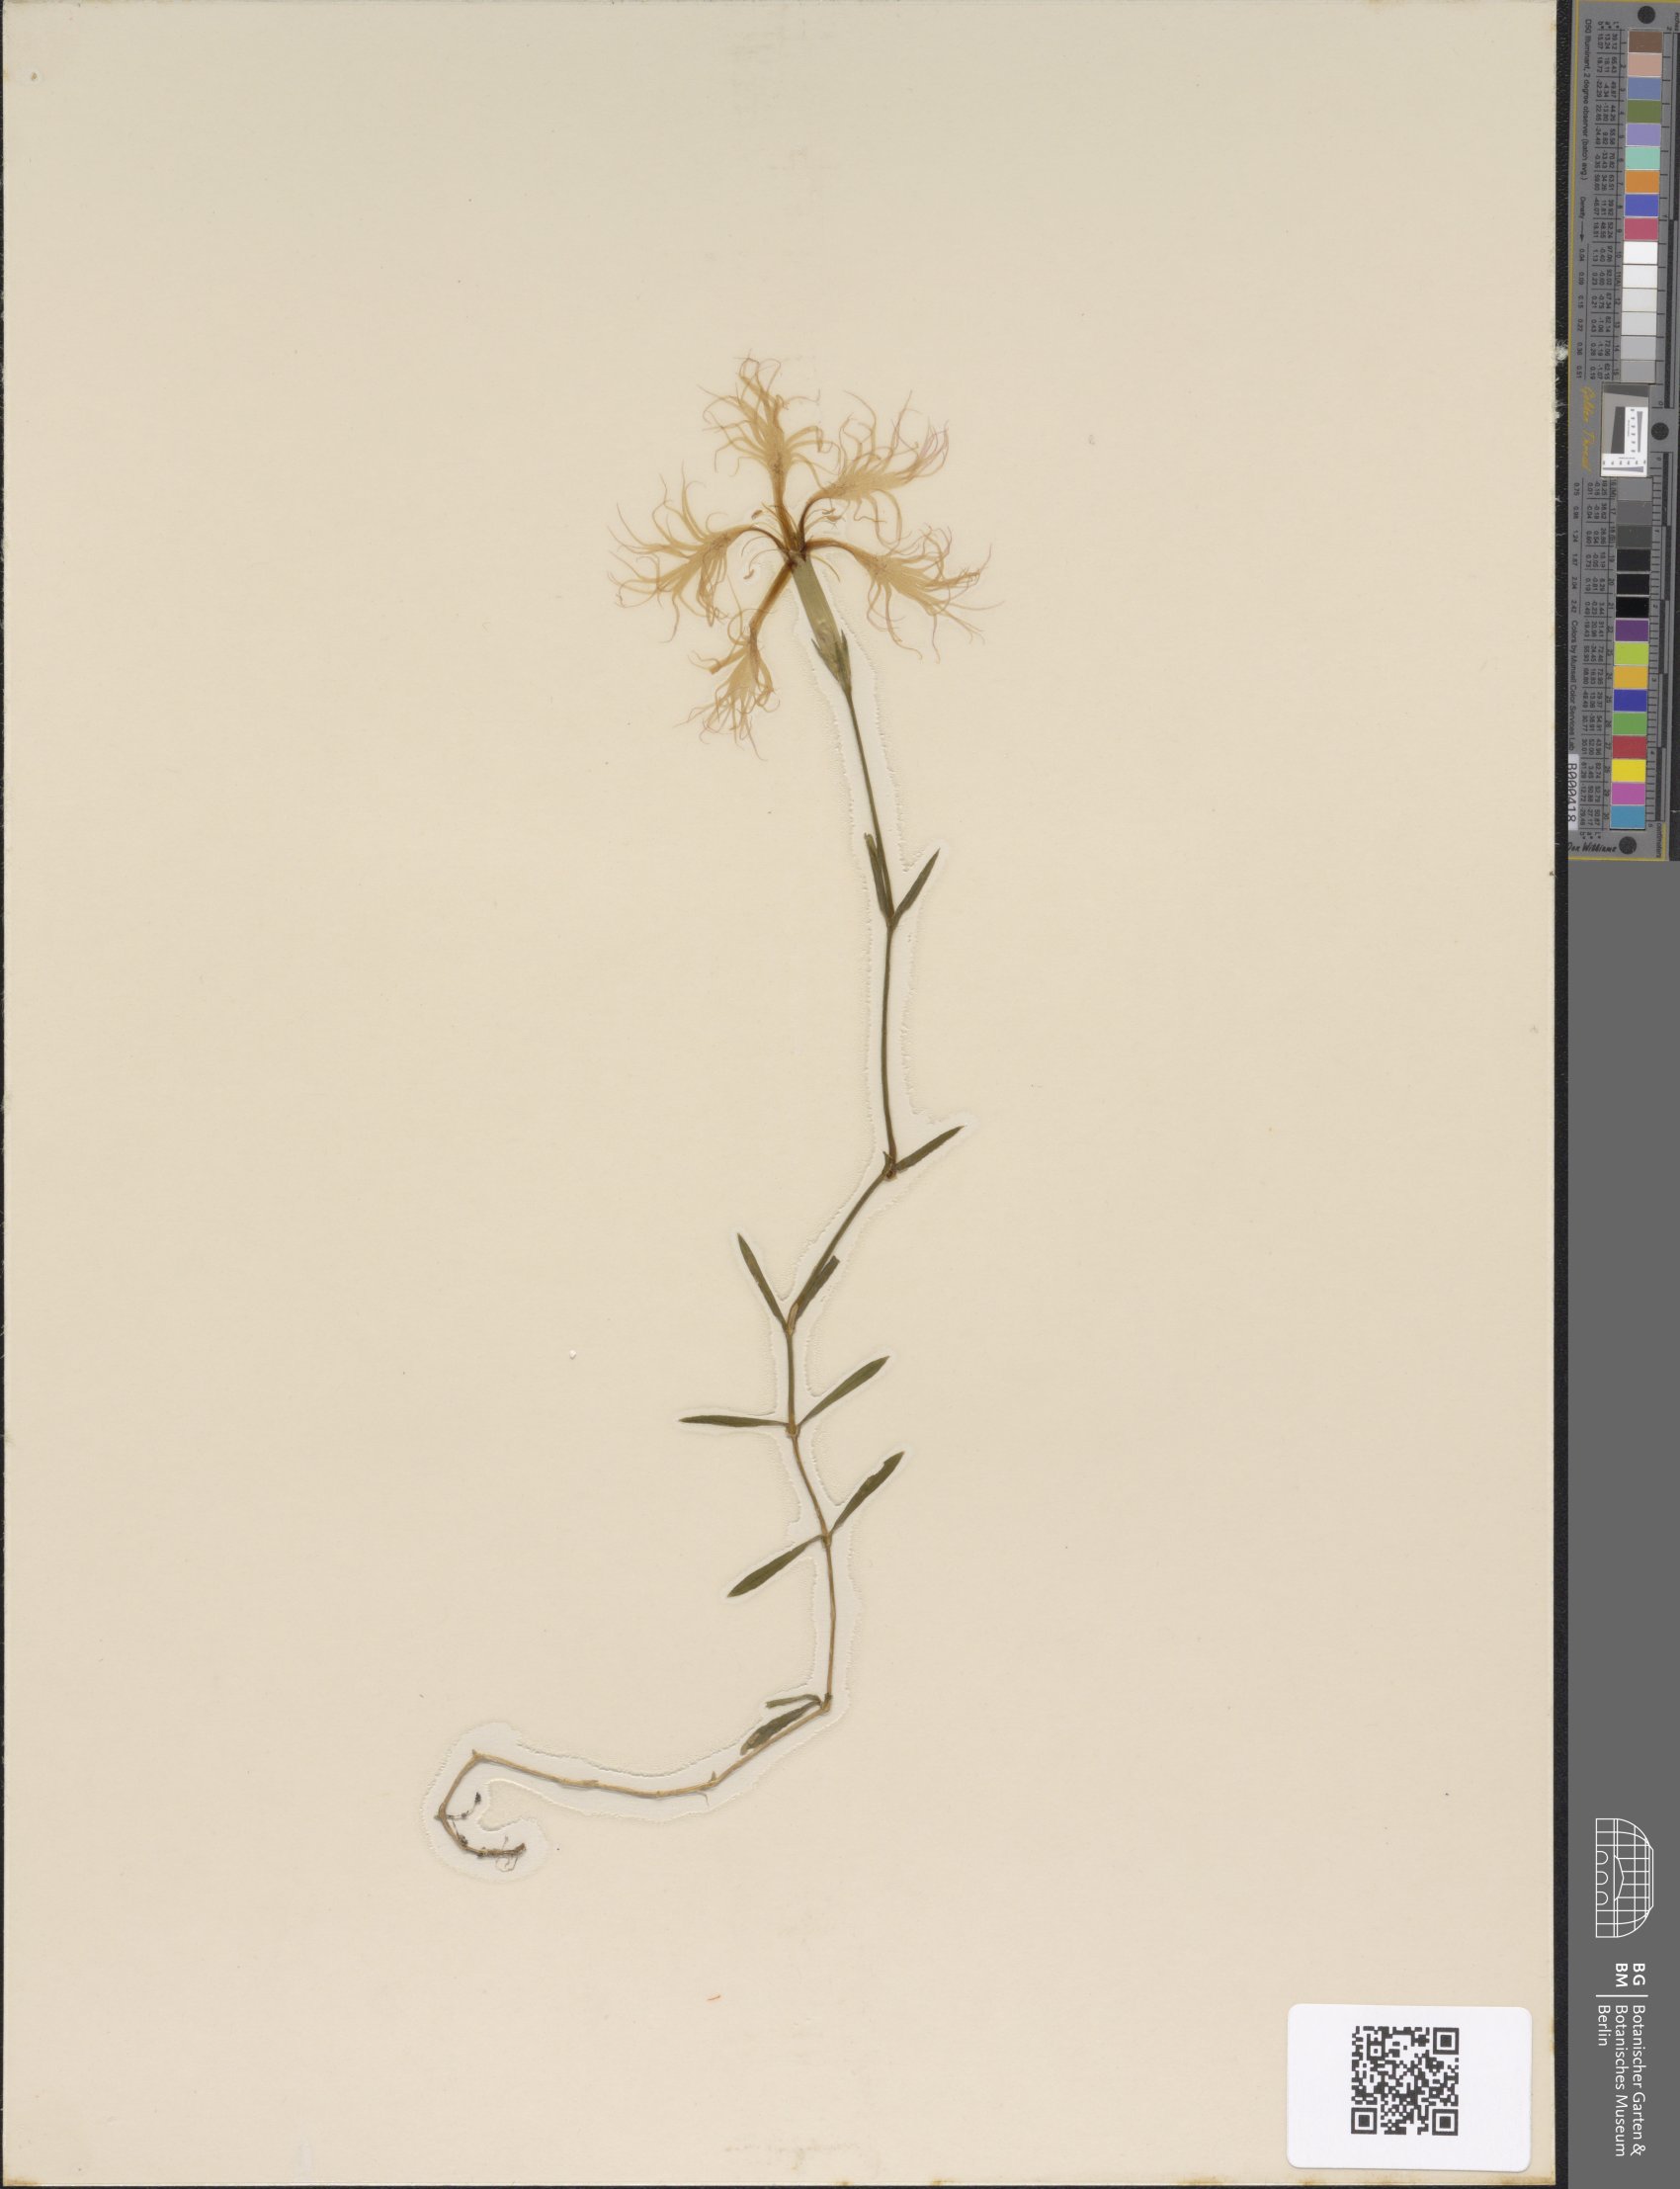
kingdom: Plantae
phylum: Tracheophyta
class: Magnoliopsida
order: Caryophyllales
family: Caryophyllaceae
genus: Dianthus
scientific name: Dianthus superbus
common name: Fringed pink
